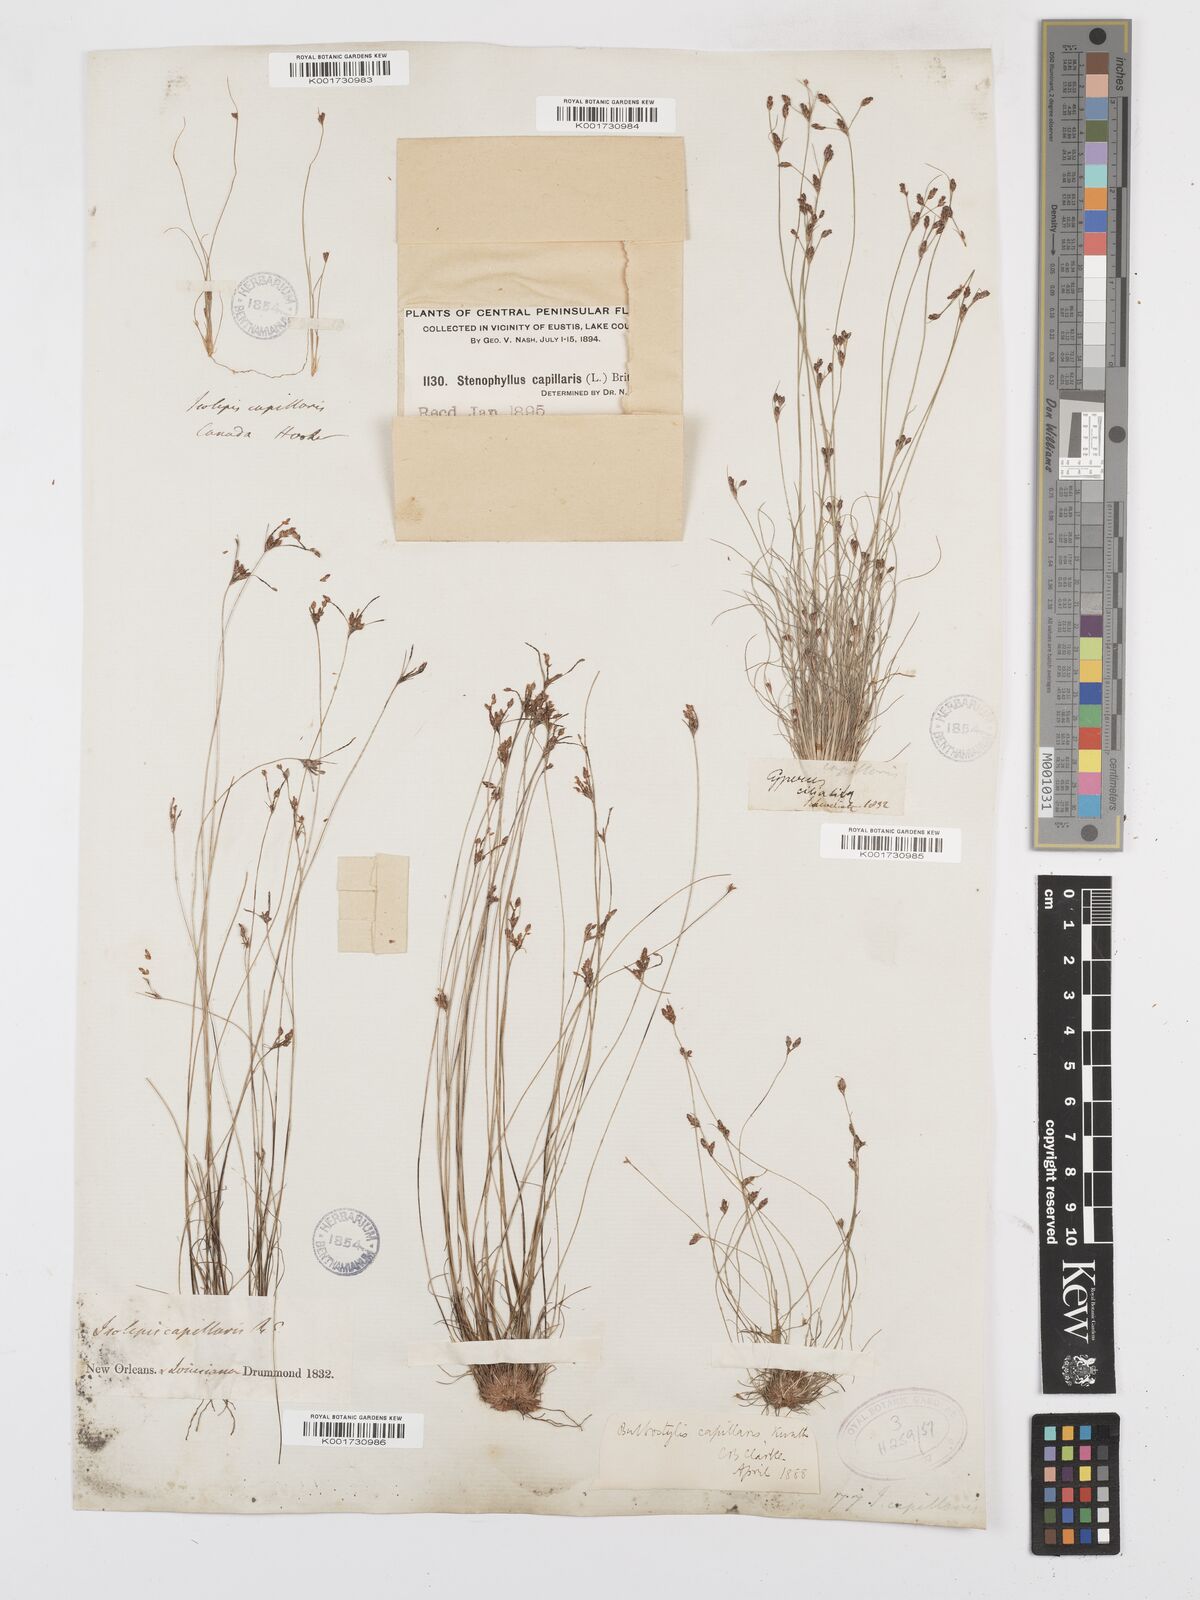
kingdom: Plantae
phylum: Tracheophyta
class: Liliopsida
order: Poales
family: Cyperaceae
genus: Bulbostylis
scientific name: Bulbostylis capillaris
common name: Densetuft hairsedge
